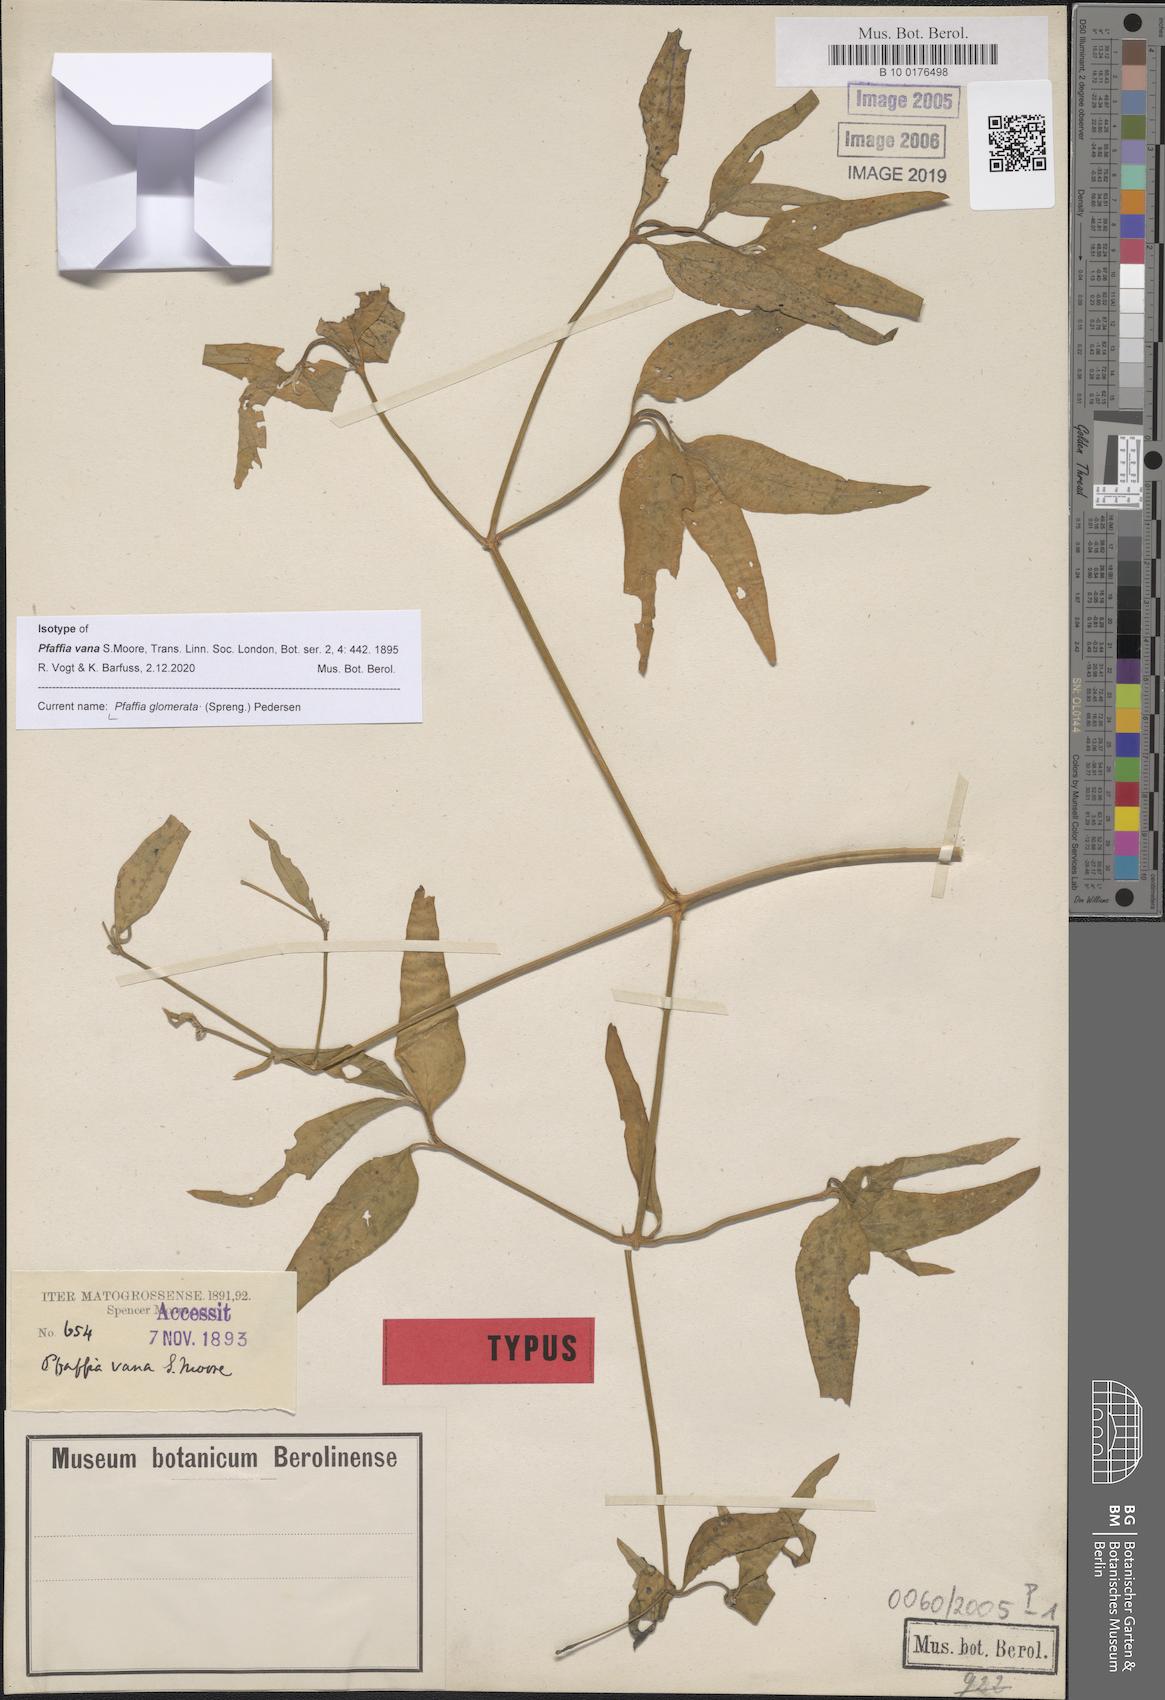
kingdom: Plantae
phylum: Tracheophyta
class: Magnoliopsida
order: Caryophyllales
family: Amaranthaceae
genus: Pfaffia
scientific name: Pfaffia glomerata
